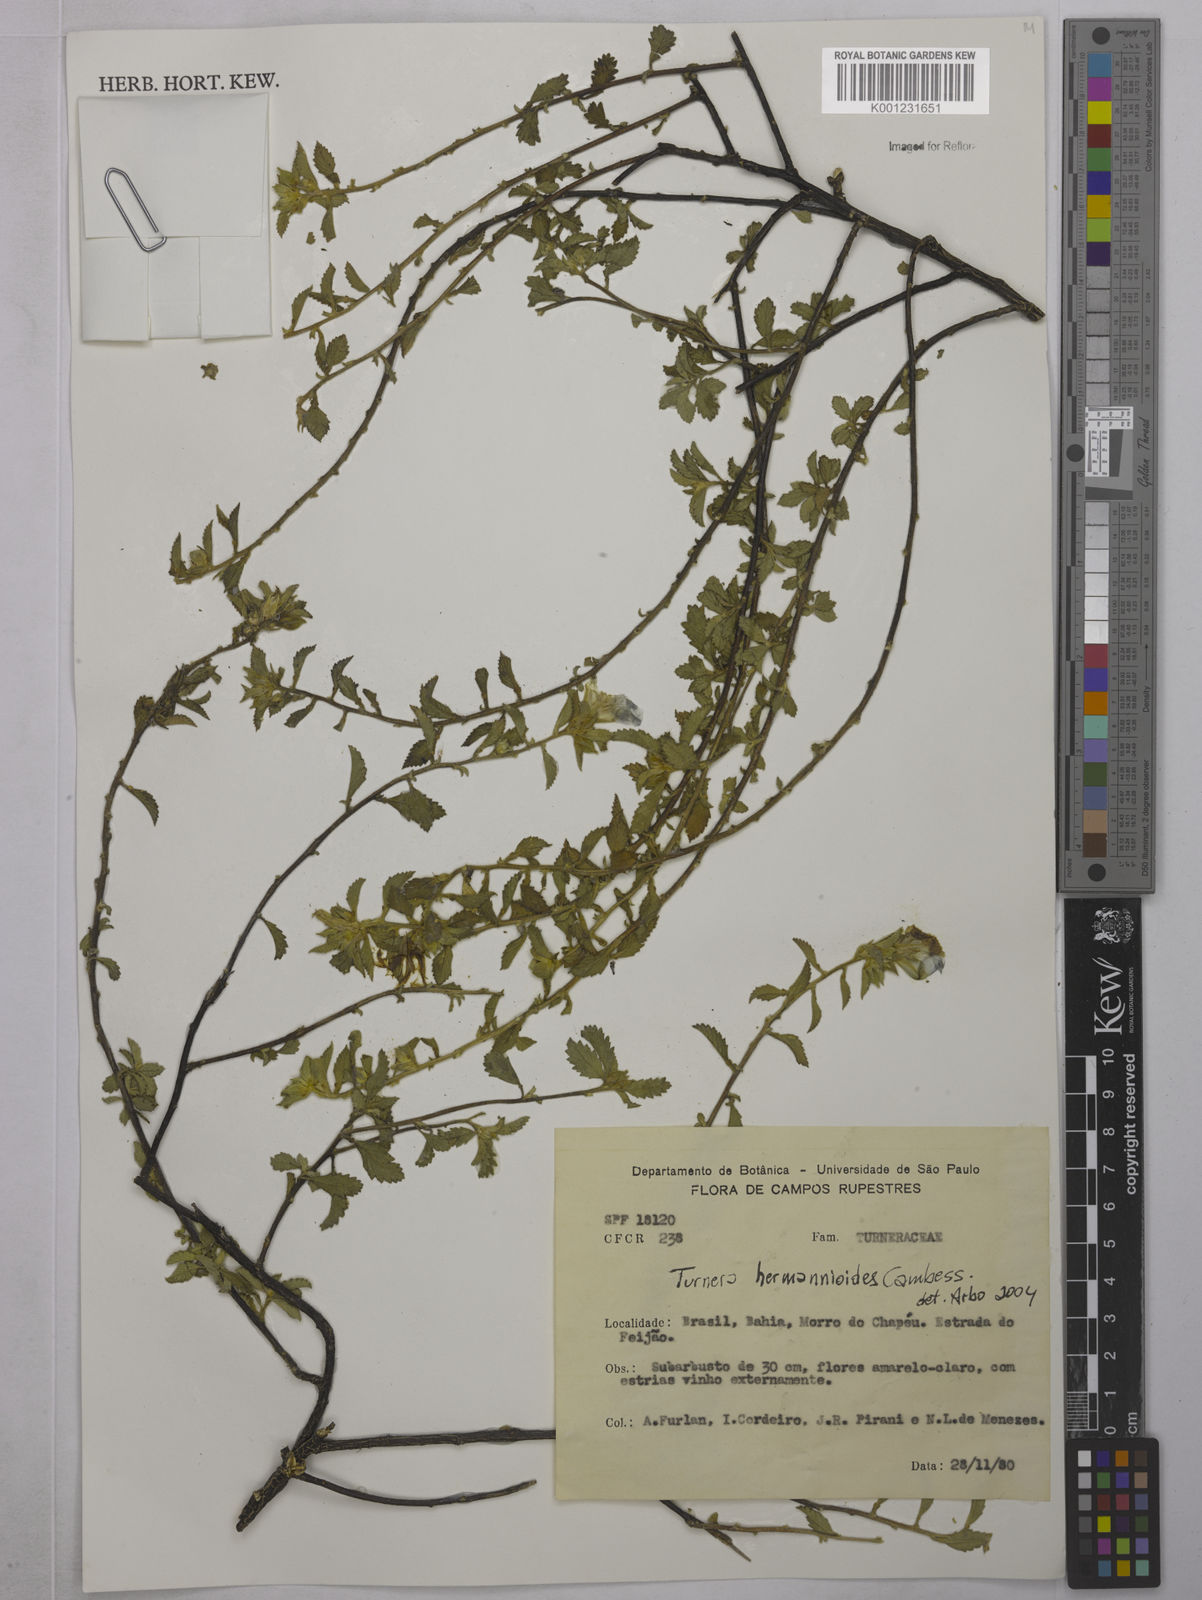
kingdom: Plantae
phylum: Tracheophyta
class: Magnoliopsida
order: Malpighiales
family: Turneraceae
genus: Turnera
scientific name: Turnera hermannioides
